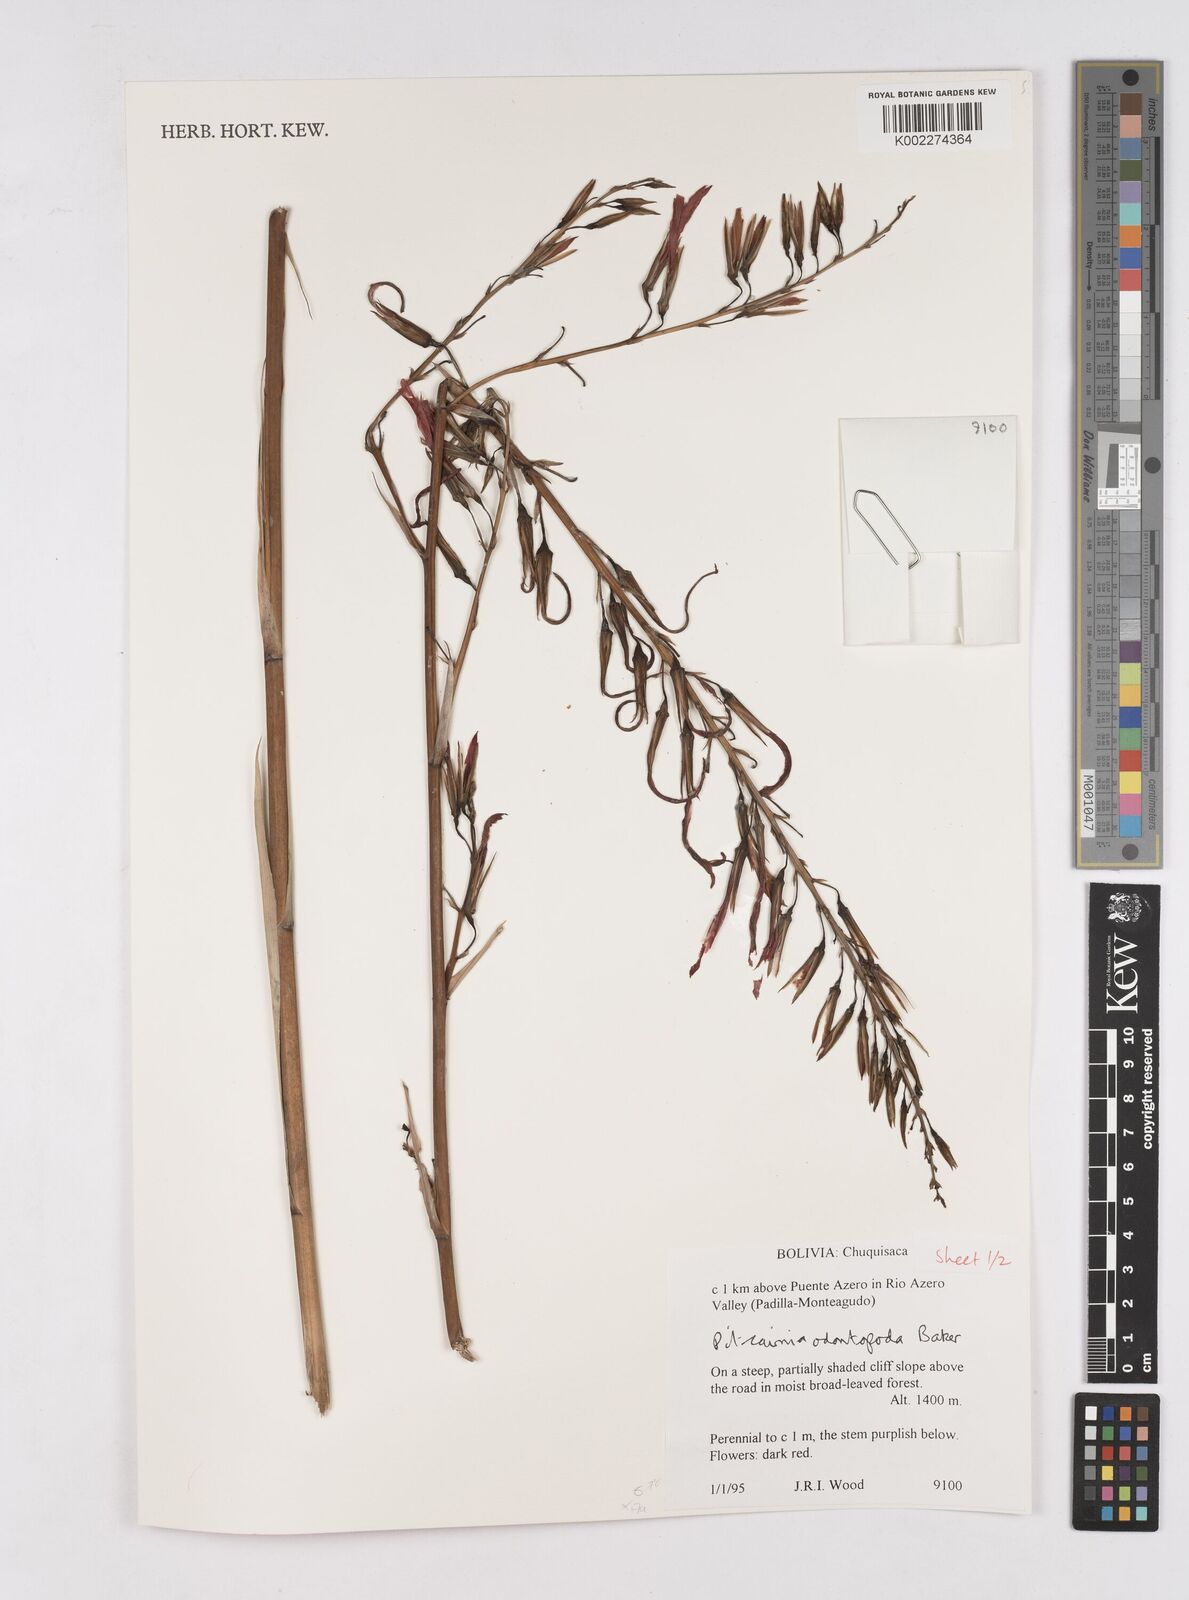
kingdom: Plantae
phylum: Tracheophyta
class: Liliopsida
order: Poales
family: Bromeliaceae
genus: Pitcairnia
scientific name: Pitcairnia odontopoda
